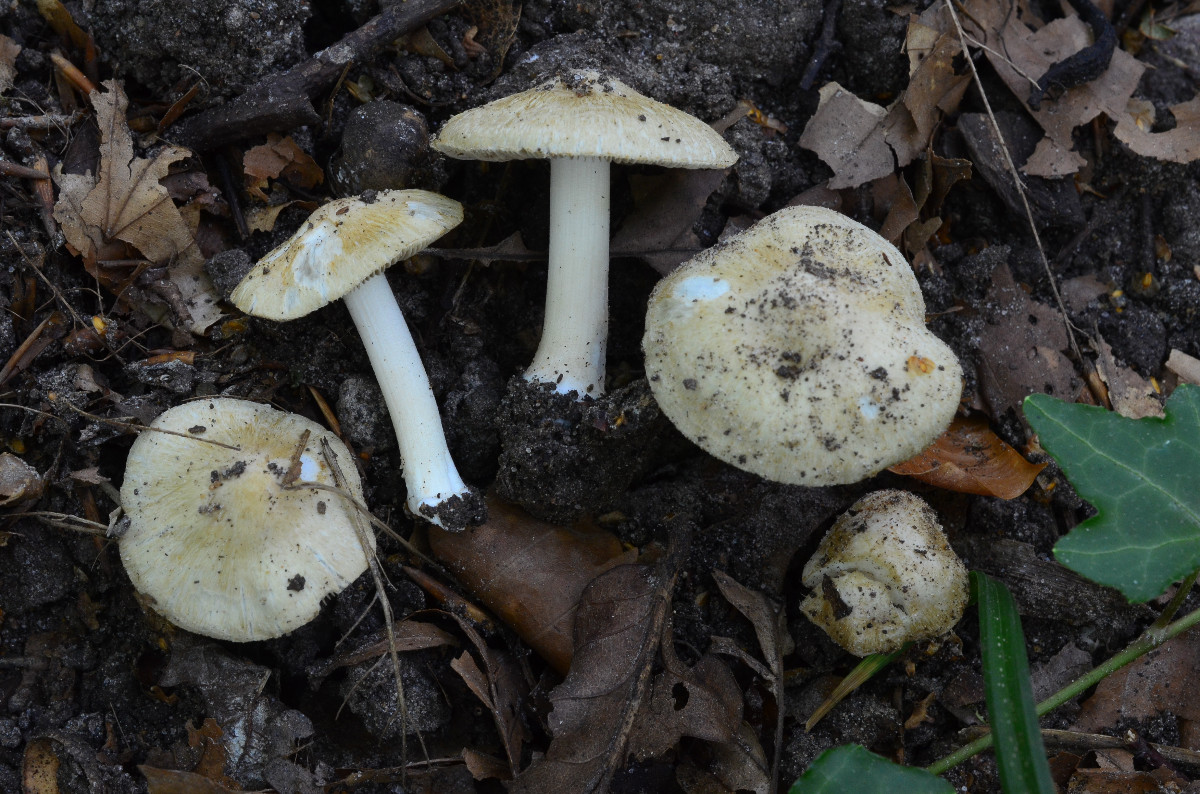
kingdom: Fungi
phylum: Basidiomycota
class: Agaricomycetes
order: Agaricales
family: Inocybaceae
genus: Inocybe
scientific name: Inocybe margaritispora
